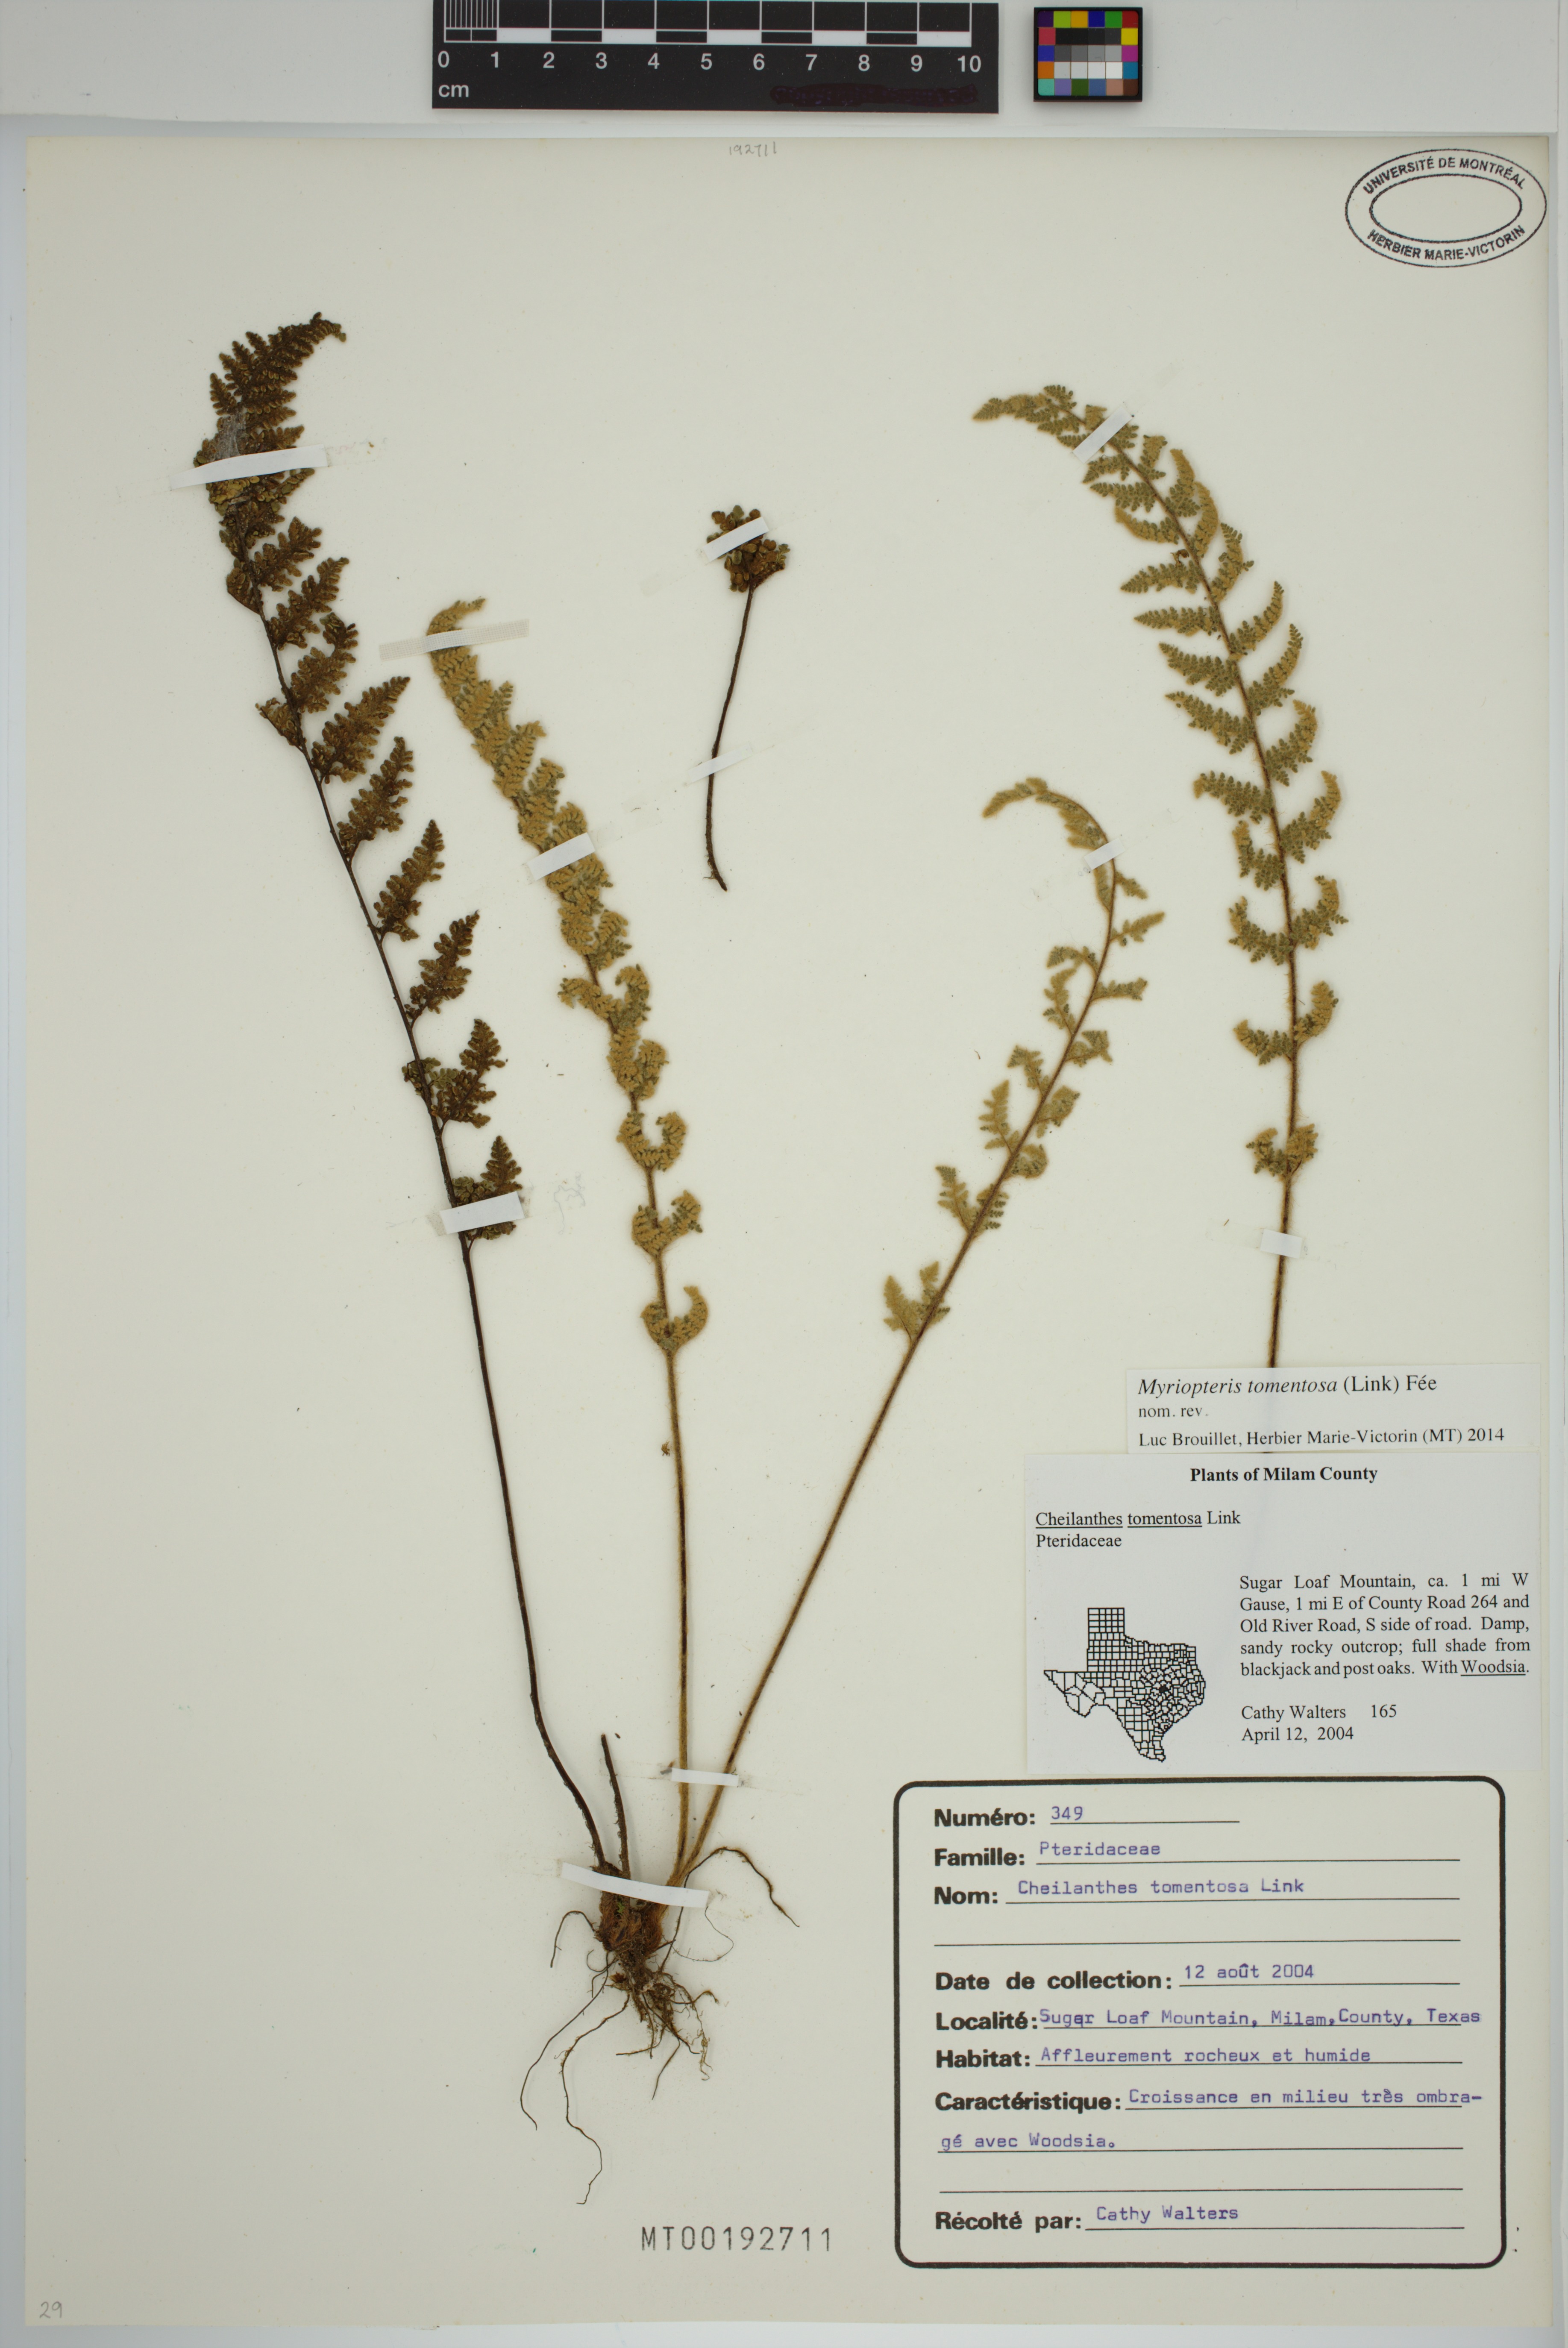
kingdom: Plantae
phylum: Tracheophyta
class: Polypodiopsida
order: Polypodiales
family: Pteridaceae
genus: Myriopteris
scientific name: Myriopteris tomentosa
